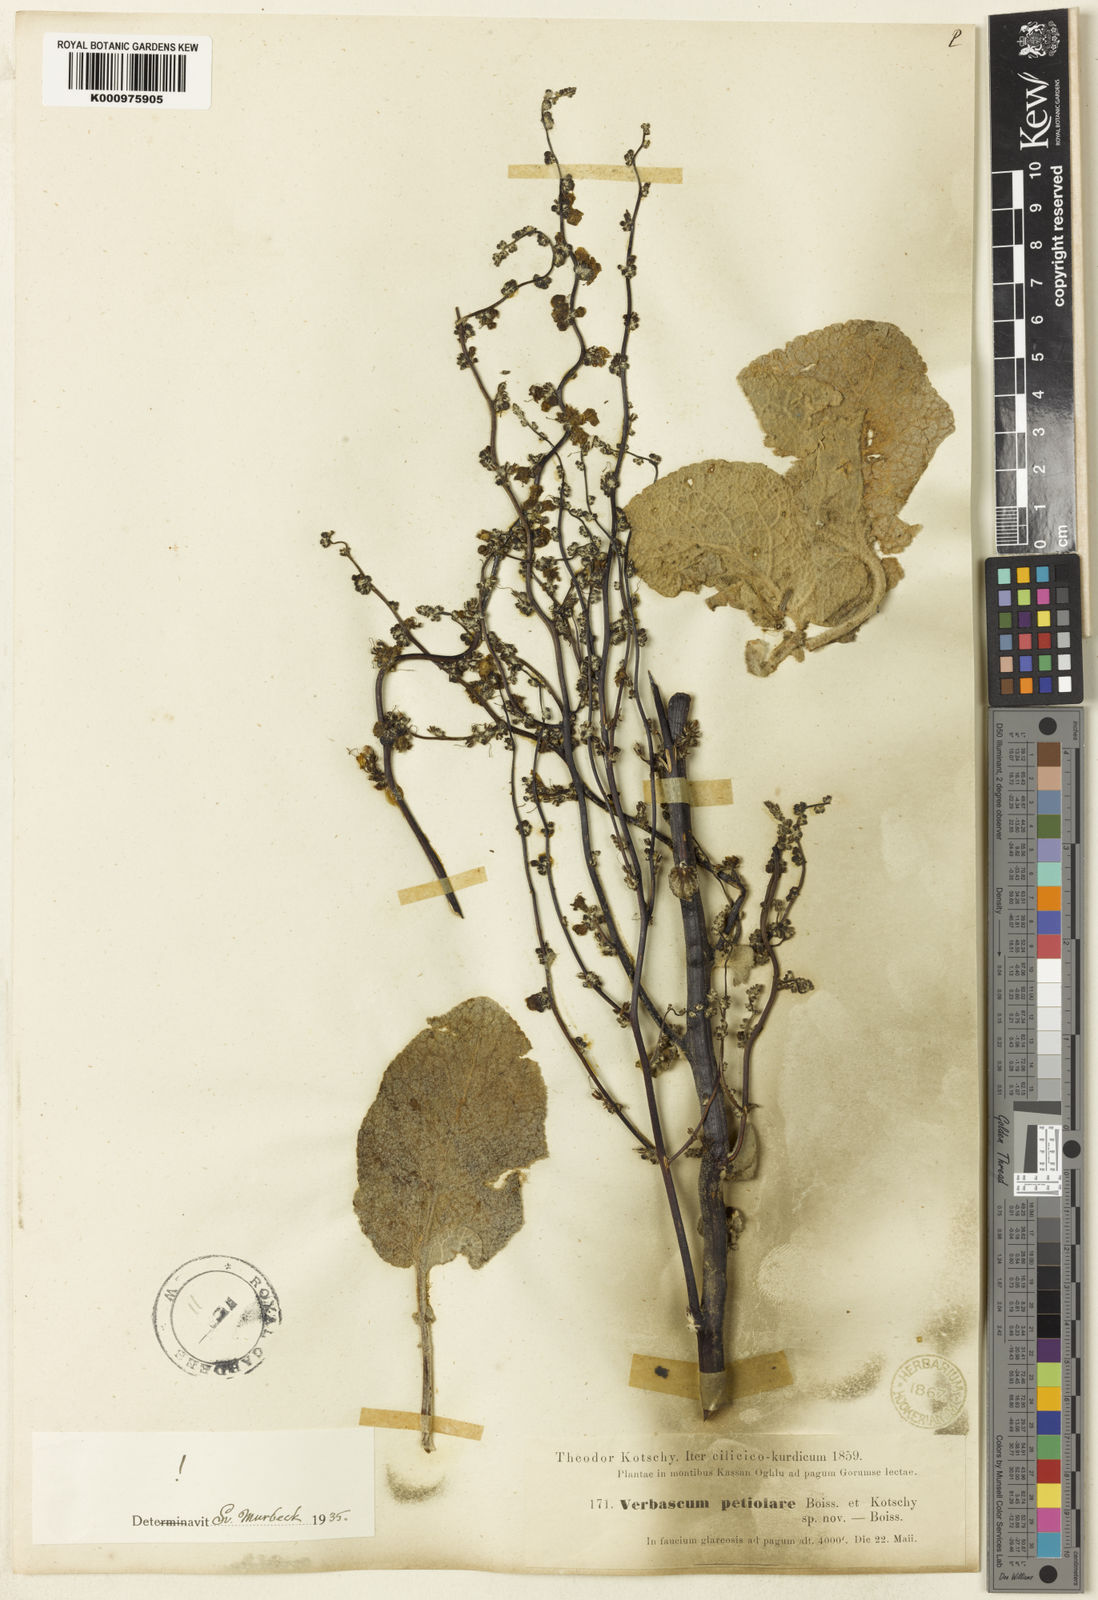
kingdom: Plantae
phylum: Tracheophyta
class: Magnoliopsida
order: Lamiales
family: Scrophulariaceae
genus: Verbascum
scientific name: Verbascum petiolare
